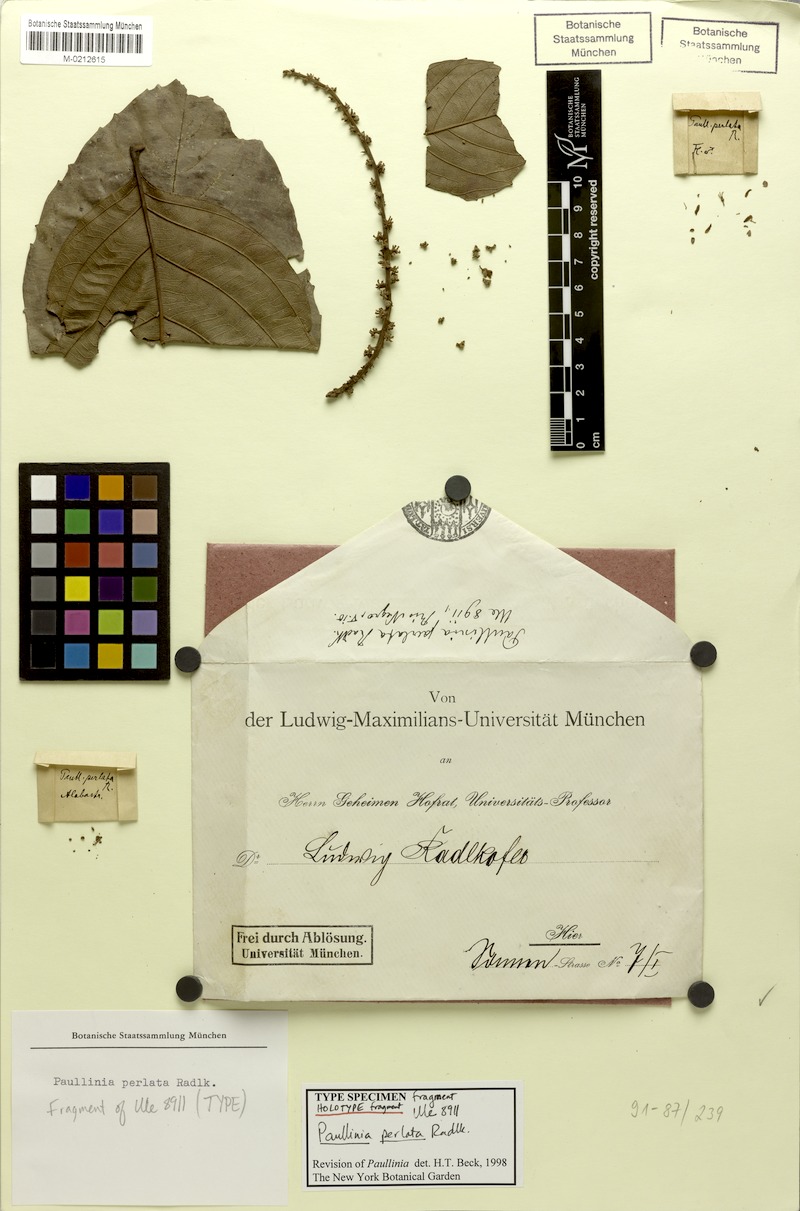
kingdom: Plantae
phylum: Tracheophyta
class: Magnoliopsida
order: Sapindales
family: Sapindaceae
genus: Paullinia
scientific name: Paullinia latifolia
